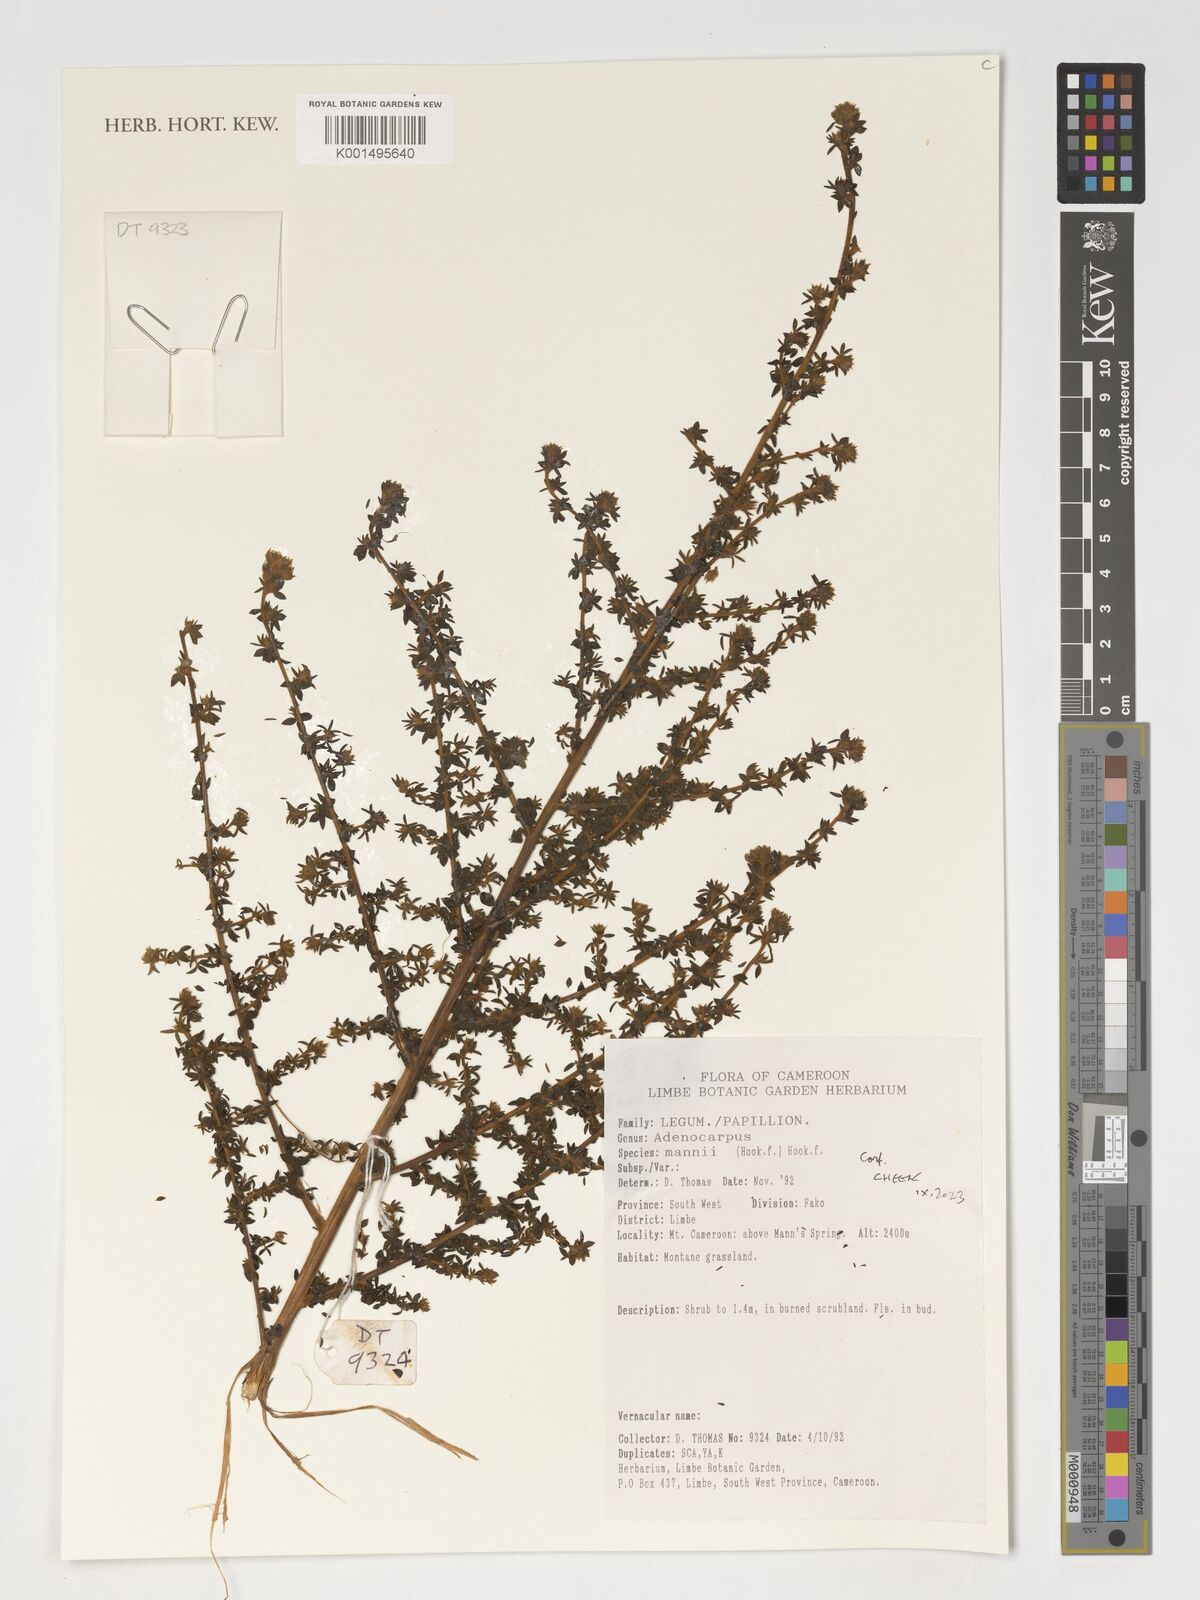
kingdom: Plantae
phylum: Tracheophyta
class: Magnoliopsida
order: Fabales
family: Fabaceae
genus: Adenocarpus
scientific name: Adenocarpus mannii
